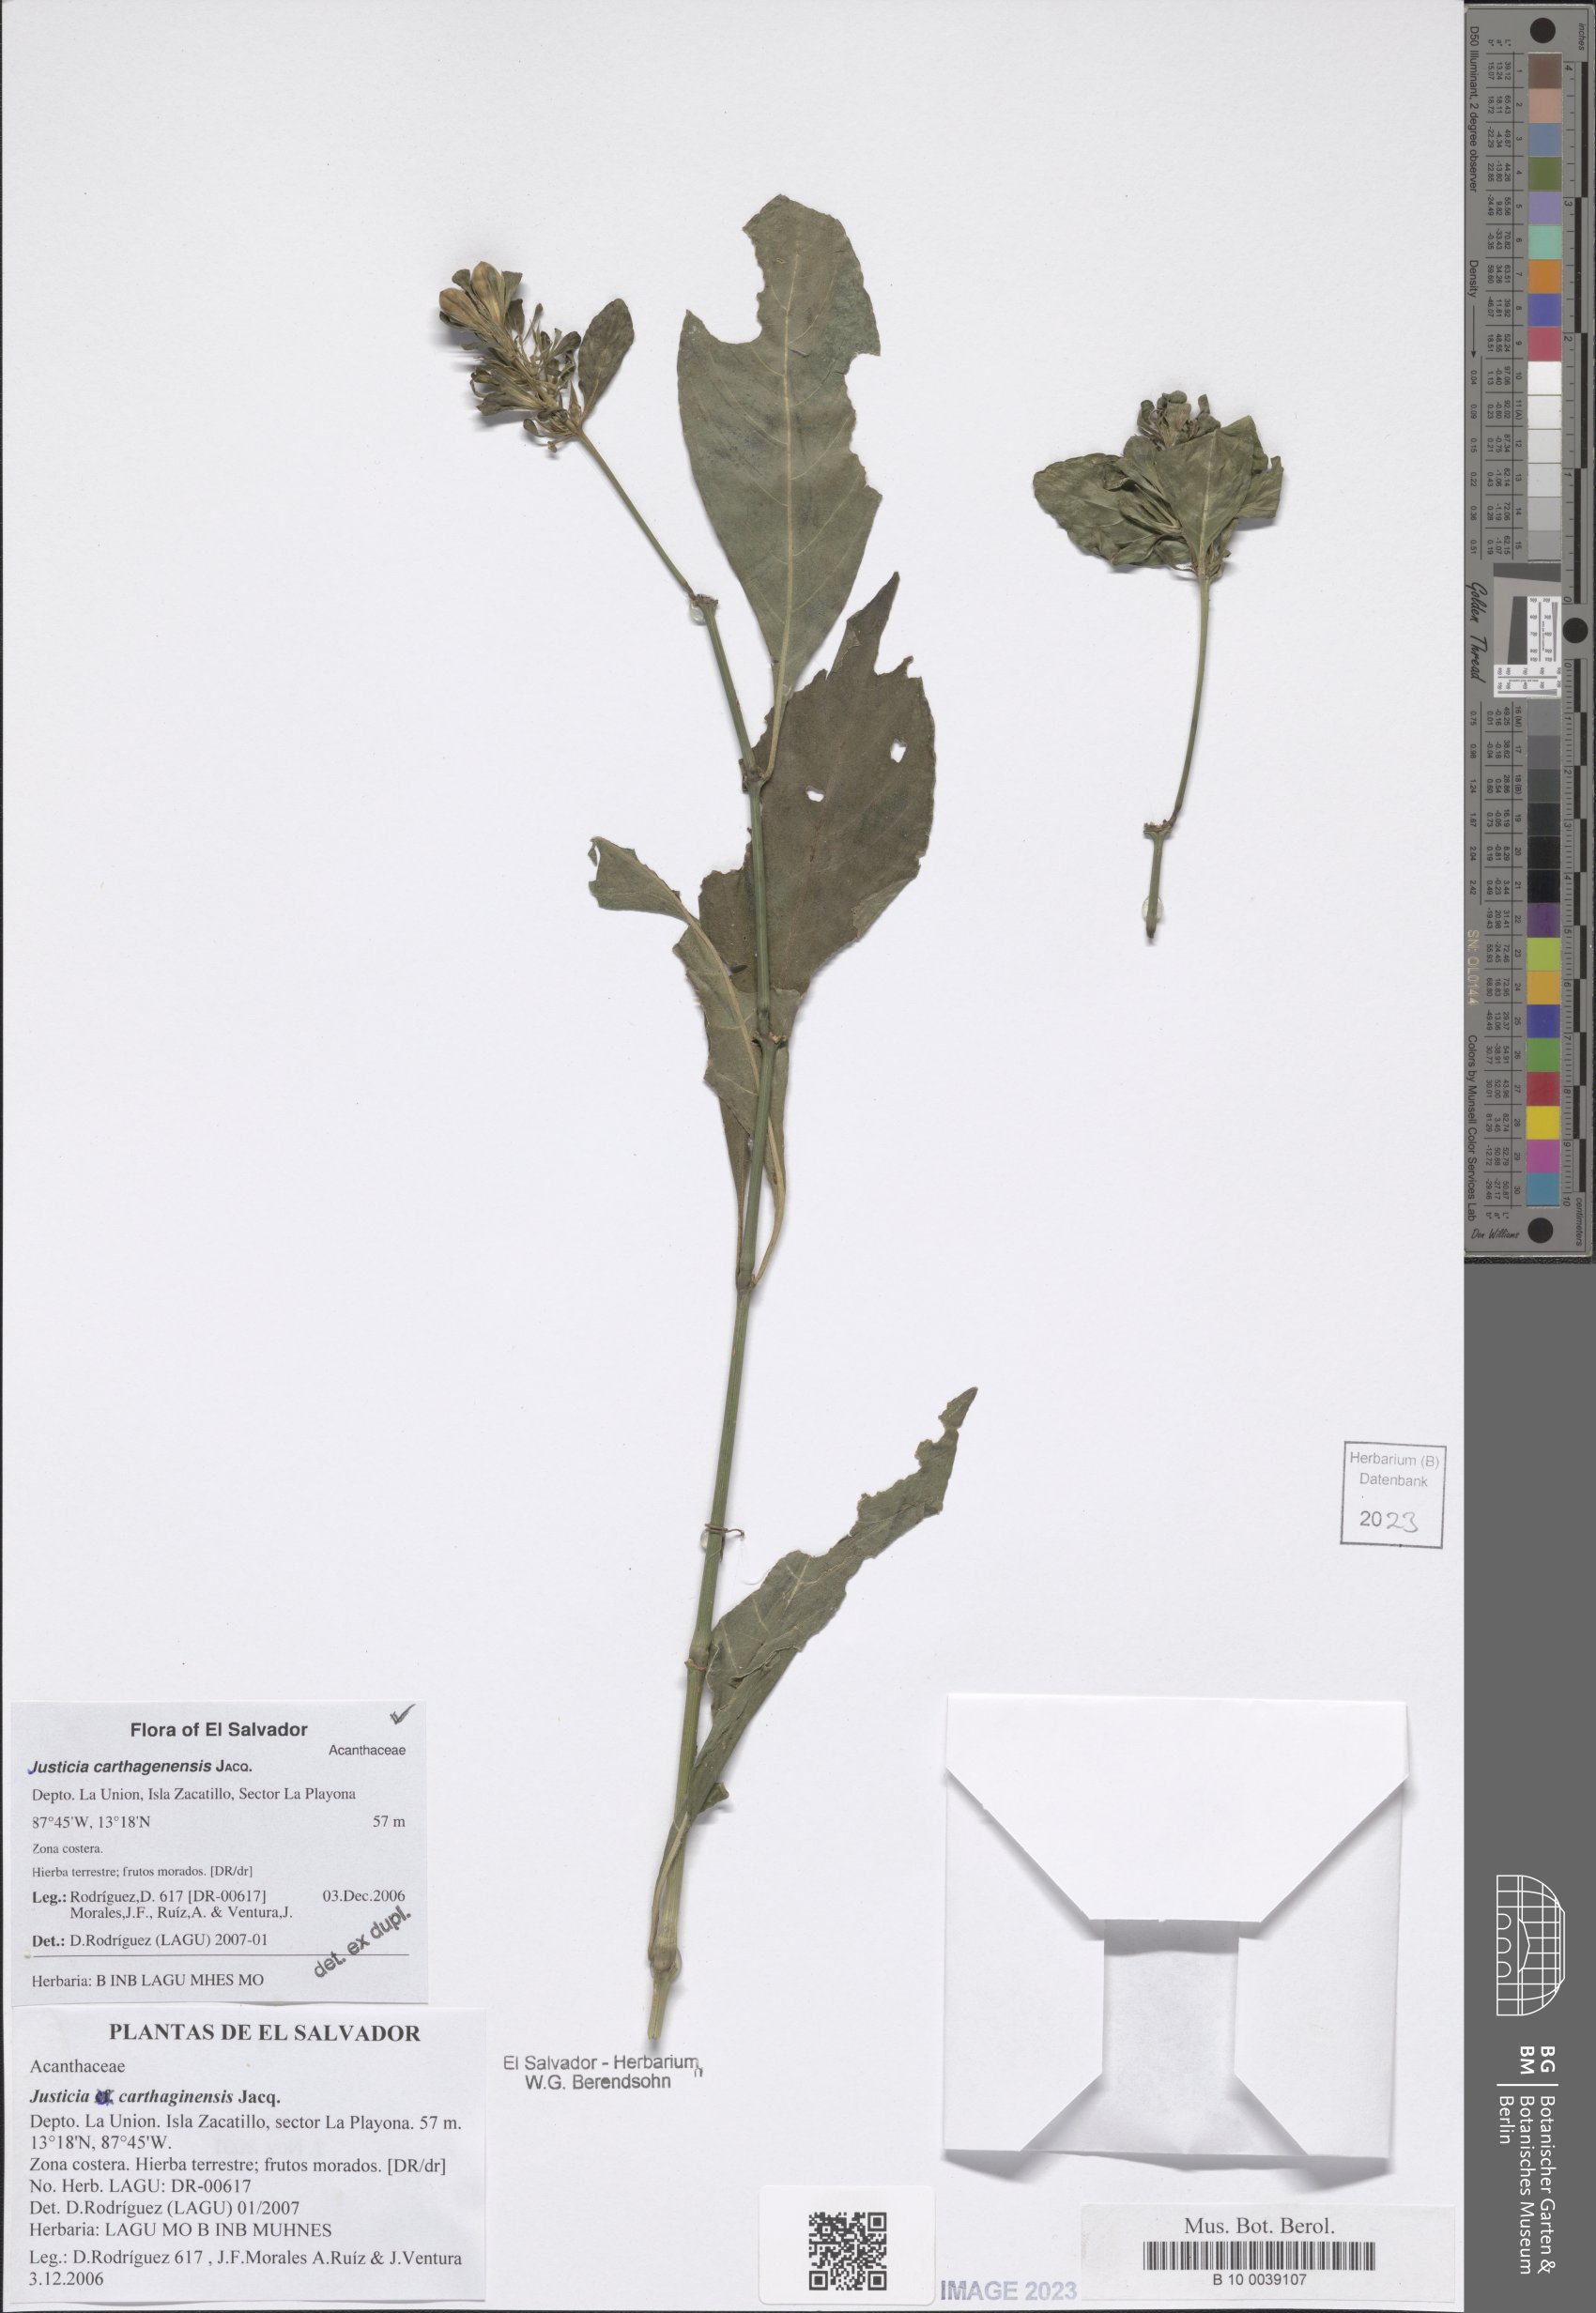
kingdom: Plantae
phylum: Tracheophyta
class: Magnoliopsida
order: Lamiales
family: Acanthaceae
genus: Justicia
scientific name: Justicia carthagenensis
